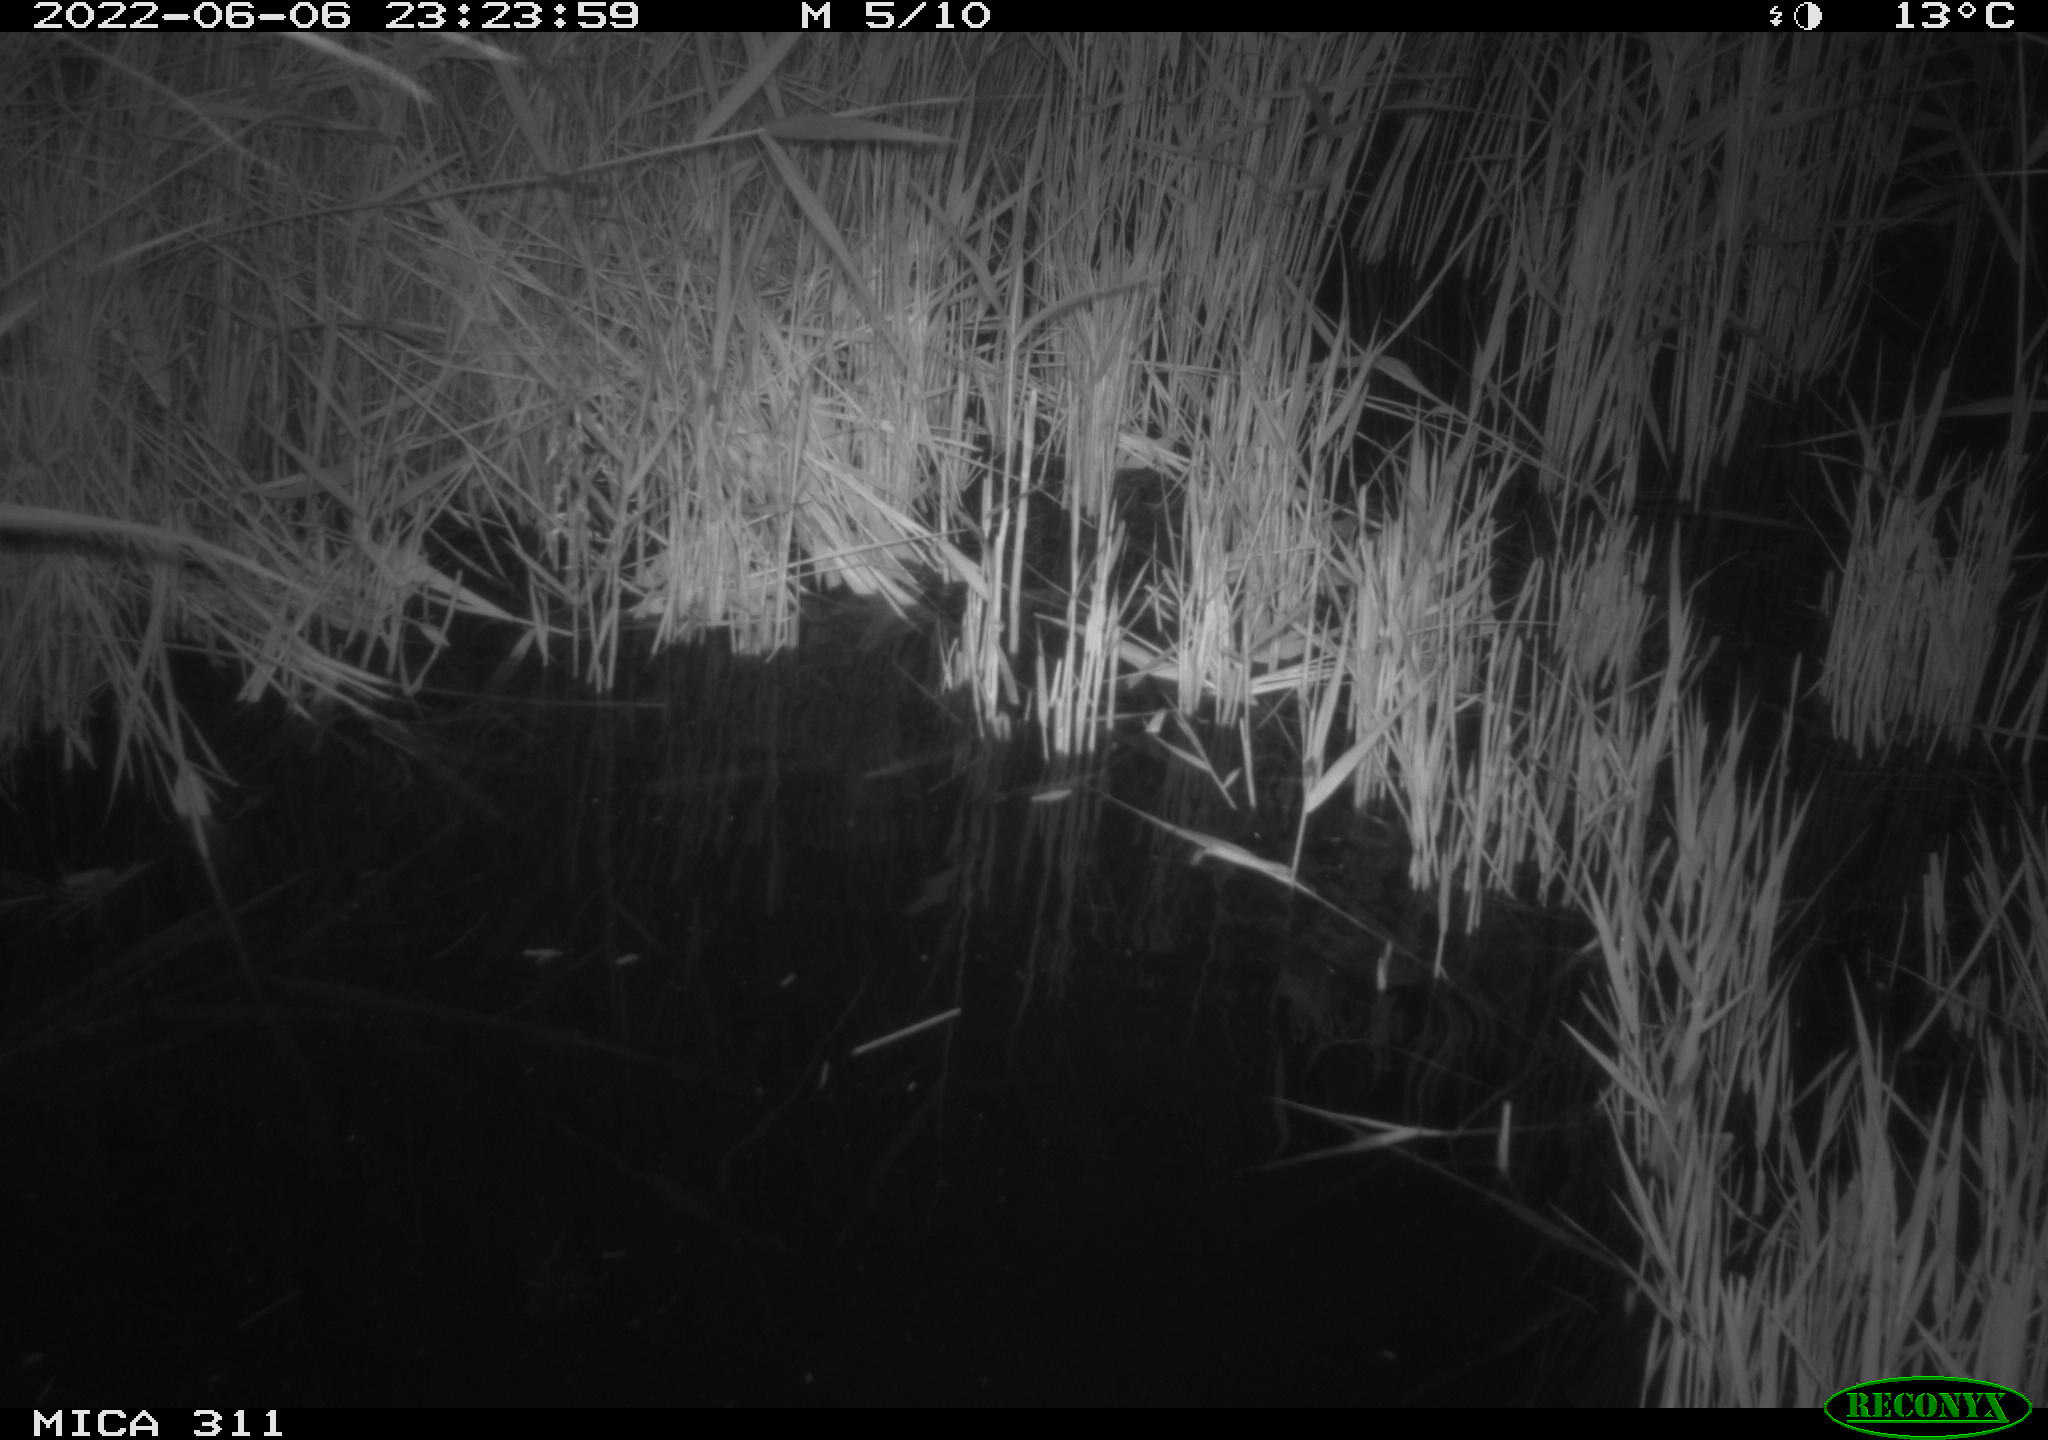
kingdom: Animalia
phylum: Chordata
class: Mammalia
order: Rodentia
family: Cricetidae
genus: Ondatra
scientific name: Ondatra zibethicus
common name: Muskrat
